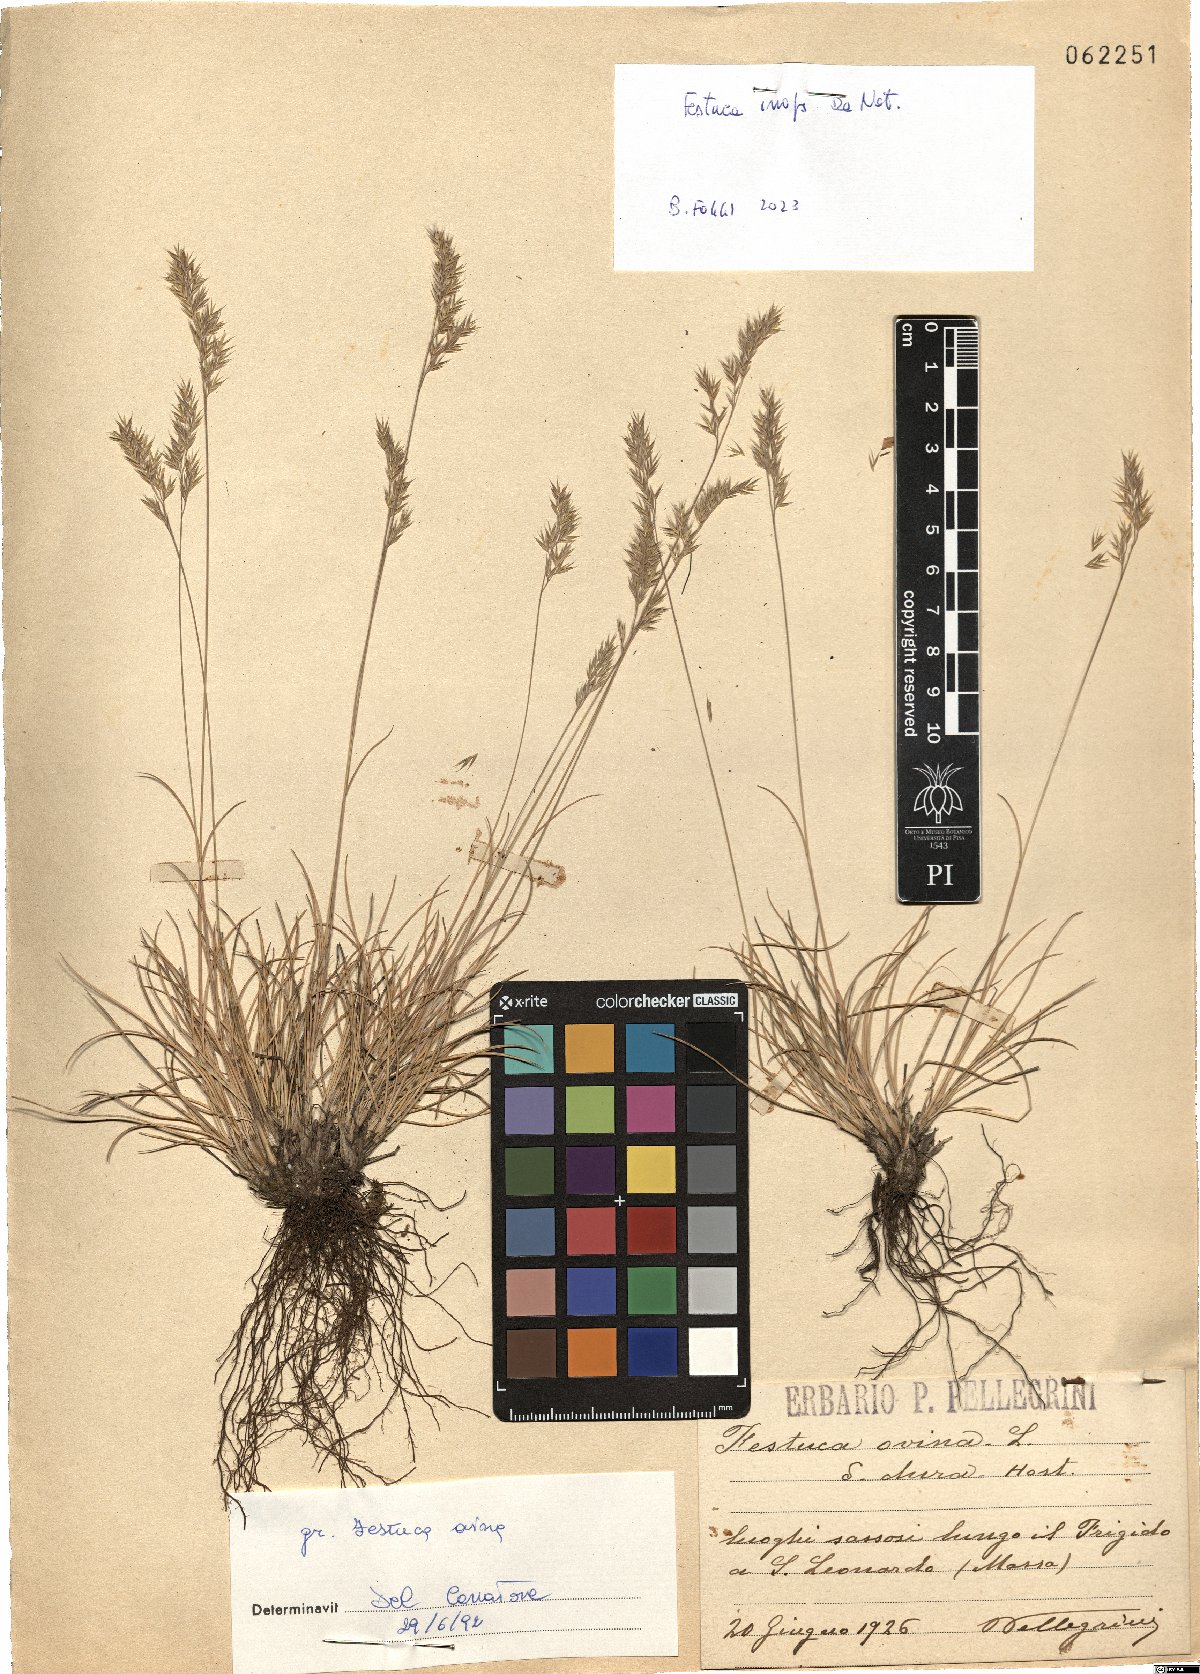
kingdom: Plantae
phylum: Tracheophyta
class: Liliopsida
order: Poales
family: Poaceae
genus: Festuca
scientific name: Festuca inops
